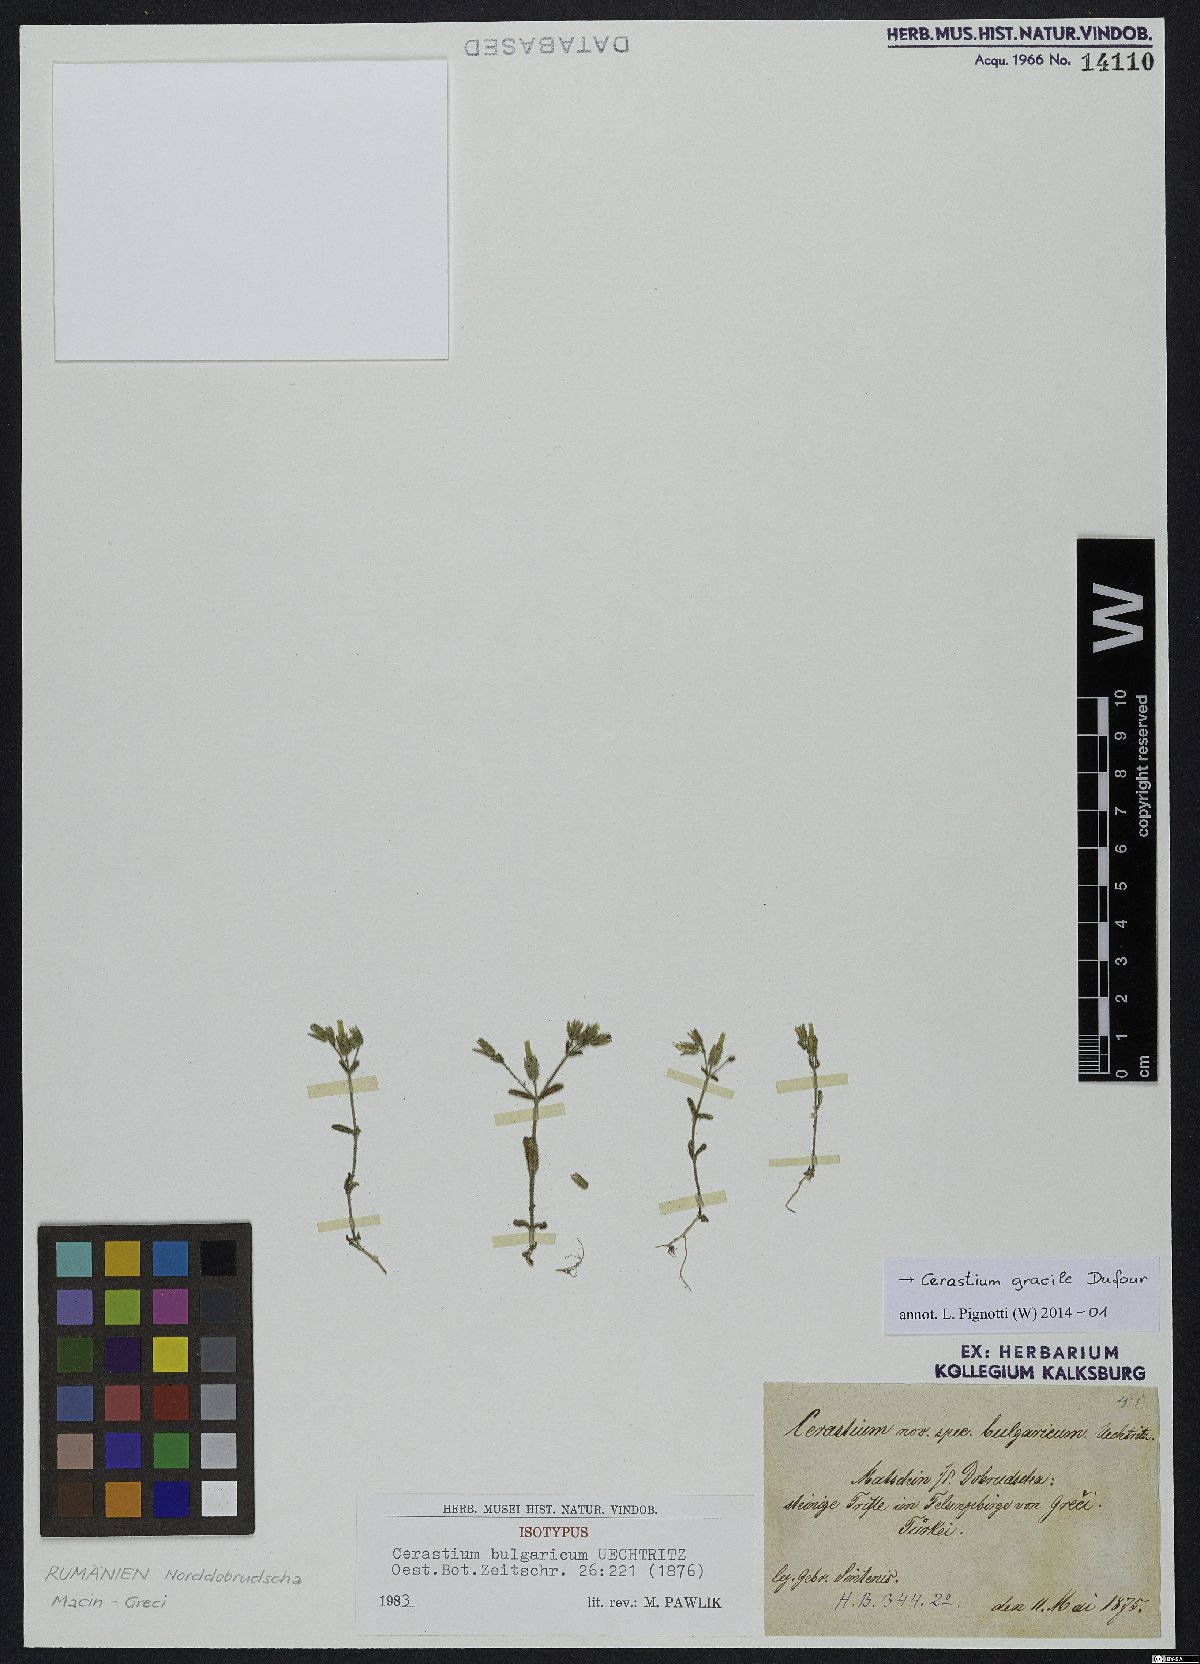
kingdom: Plantae
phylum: Tracheophyta
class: Magnoliopsida
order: Caryophyllales
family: Caryophyllaceae
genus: Cerastium
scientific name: Cerastium gracile
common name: Slender chickweed
